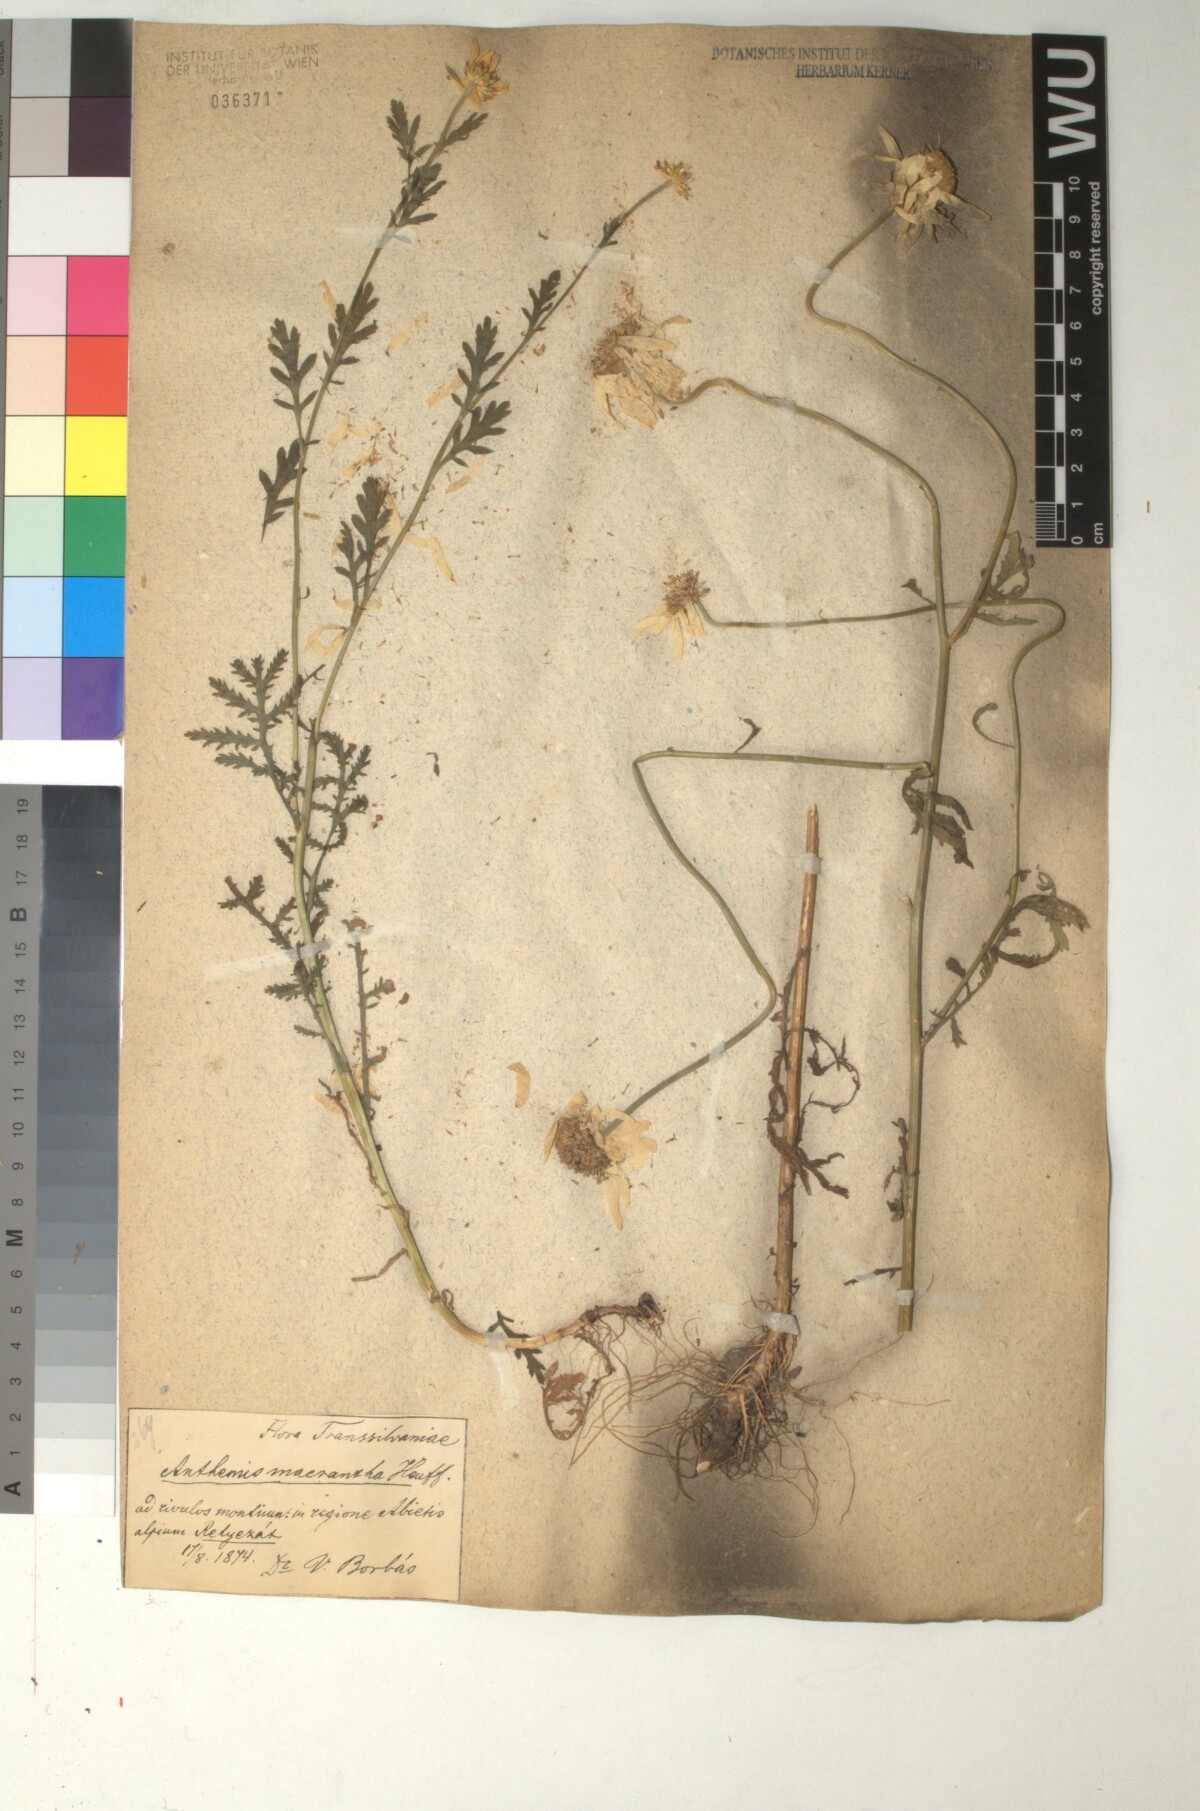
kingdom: Plantae
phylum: Tracheophyta
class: Magnoliopsida
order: Asterales
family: Asteraceae
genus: Cota
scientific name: Cota macrantha
